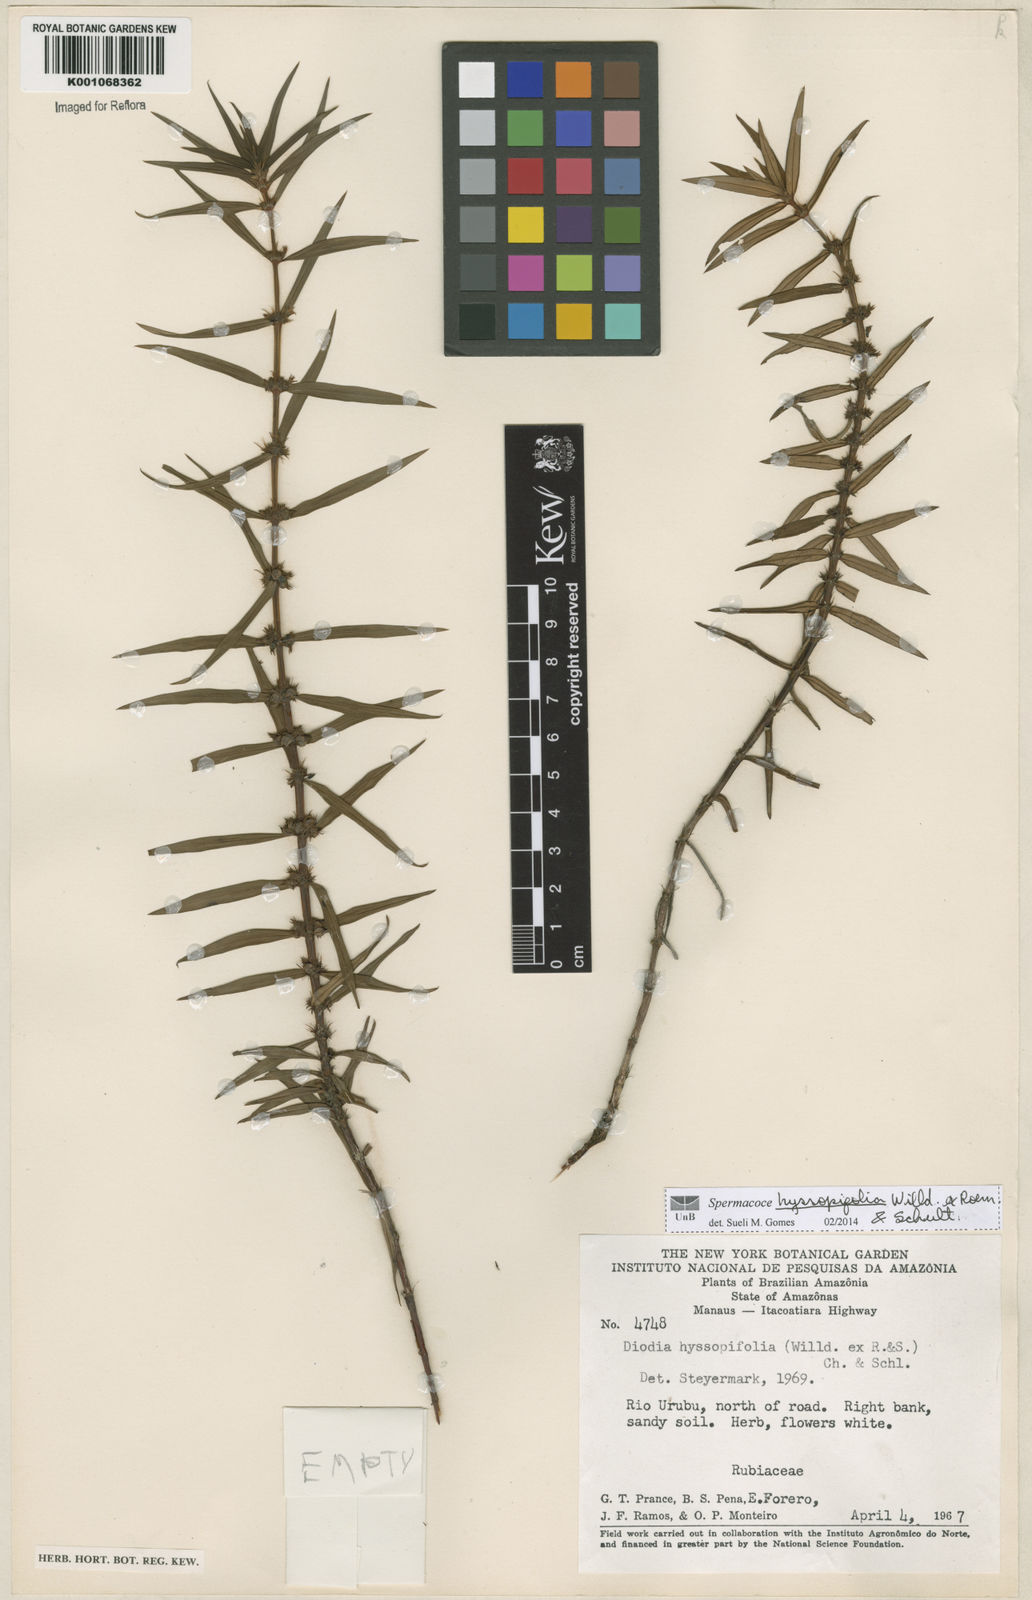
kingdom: Plantae
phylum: Tracheophyta
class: Magnoliopsida
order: Gentianales
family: Rubiaceae
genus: Spermacoce
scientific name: Spermacoce
